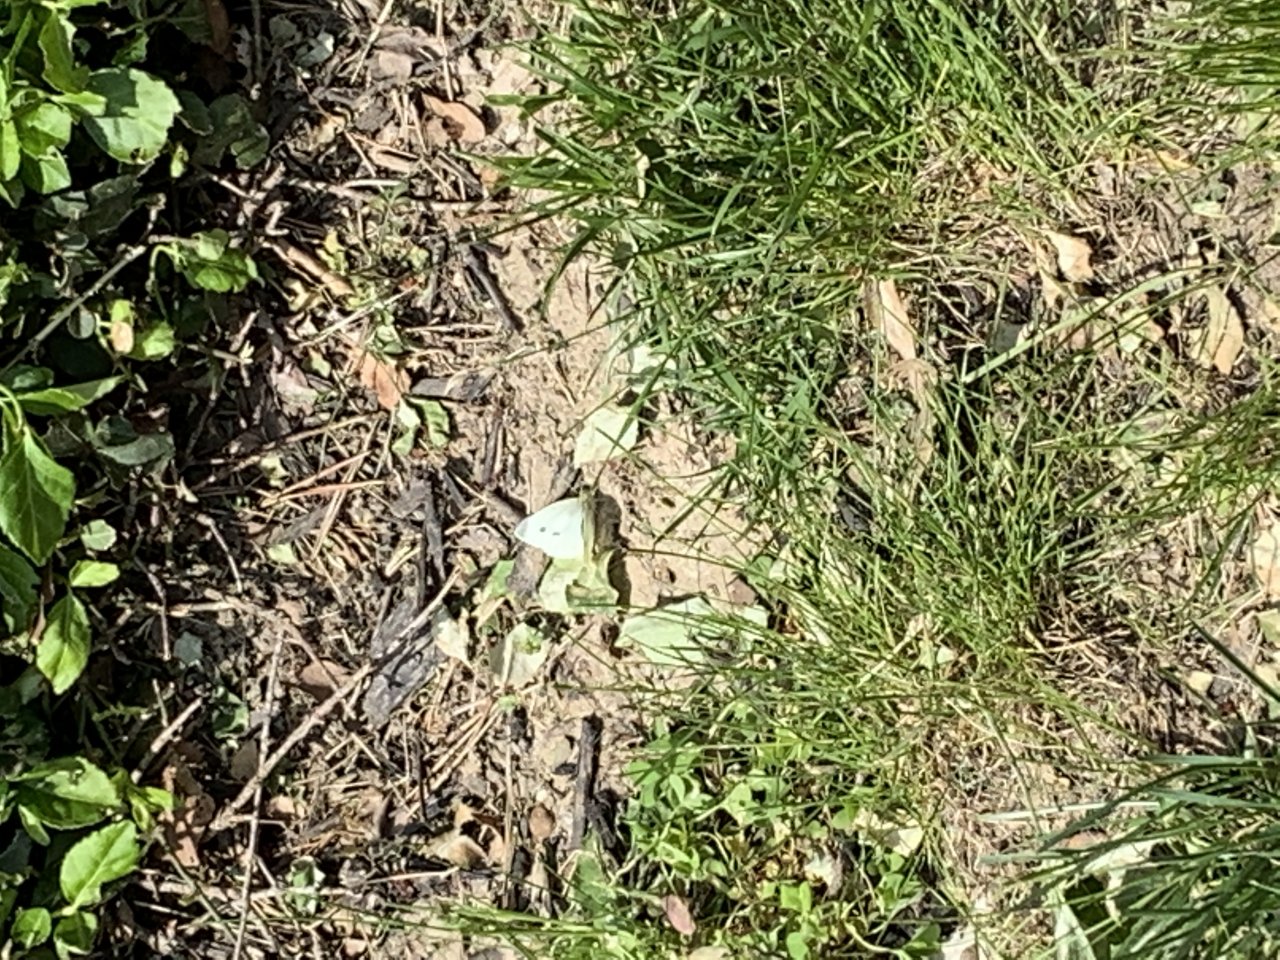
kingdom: Animalia
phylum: Arthropoda
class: Insecta
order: Lepidoptera
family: Pieridae
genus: Pieris
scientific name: Pieris rapae
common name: Cabbage White
